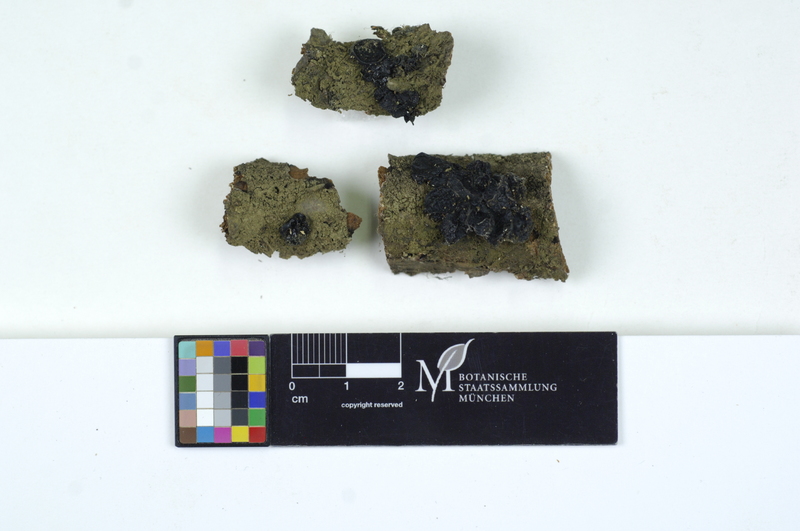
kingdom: Fungi
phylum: Basidiomycota
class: Agaricomycetes
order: Auriculariales
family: Auriculariaceae
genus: Exidia
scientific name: Exidia glandulosa
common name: Witches' butter
